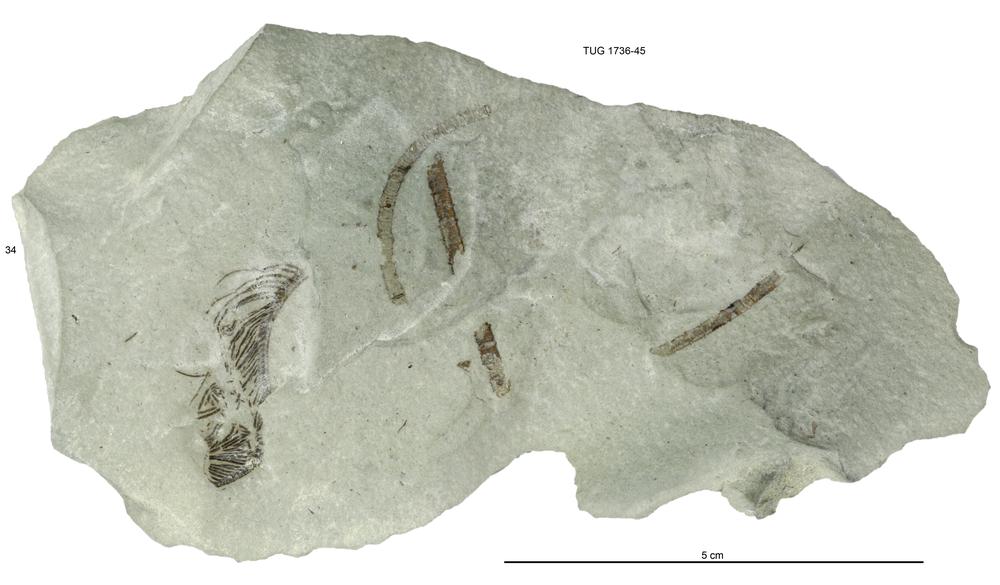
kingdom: Animalia
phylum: Echinodermata
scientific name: Echinodermata
